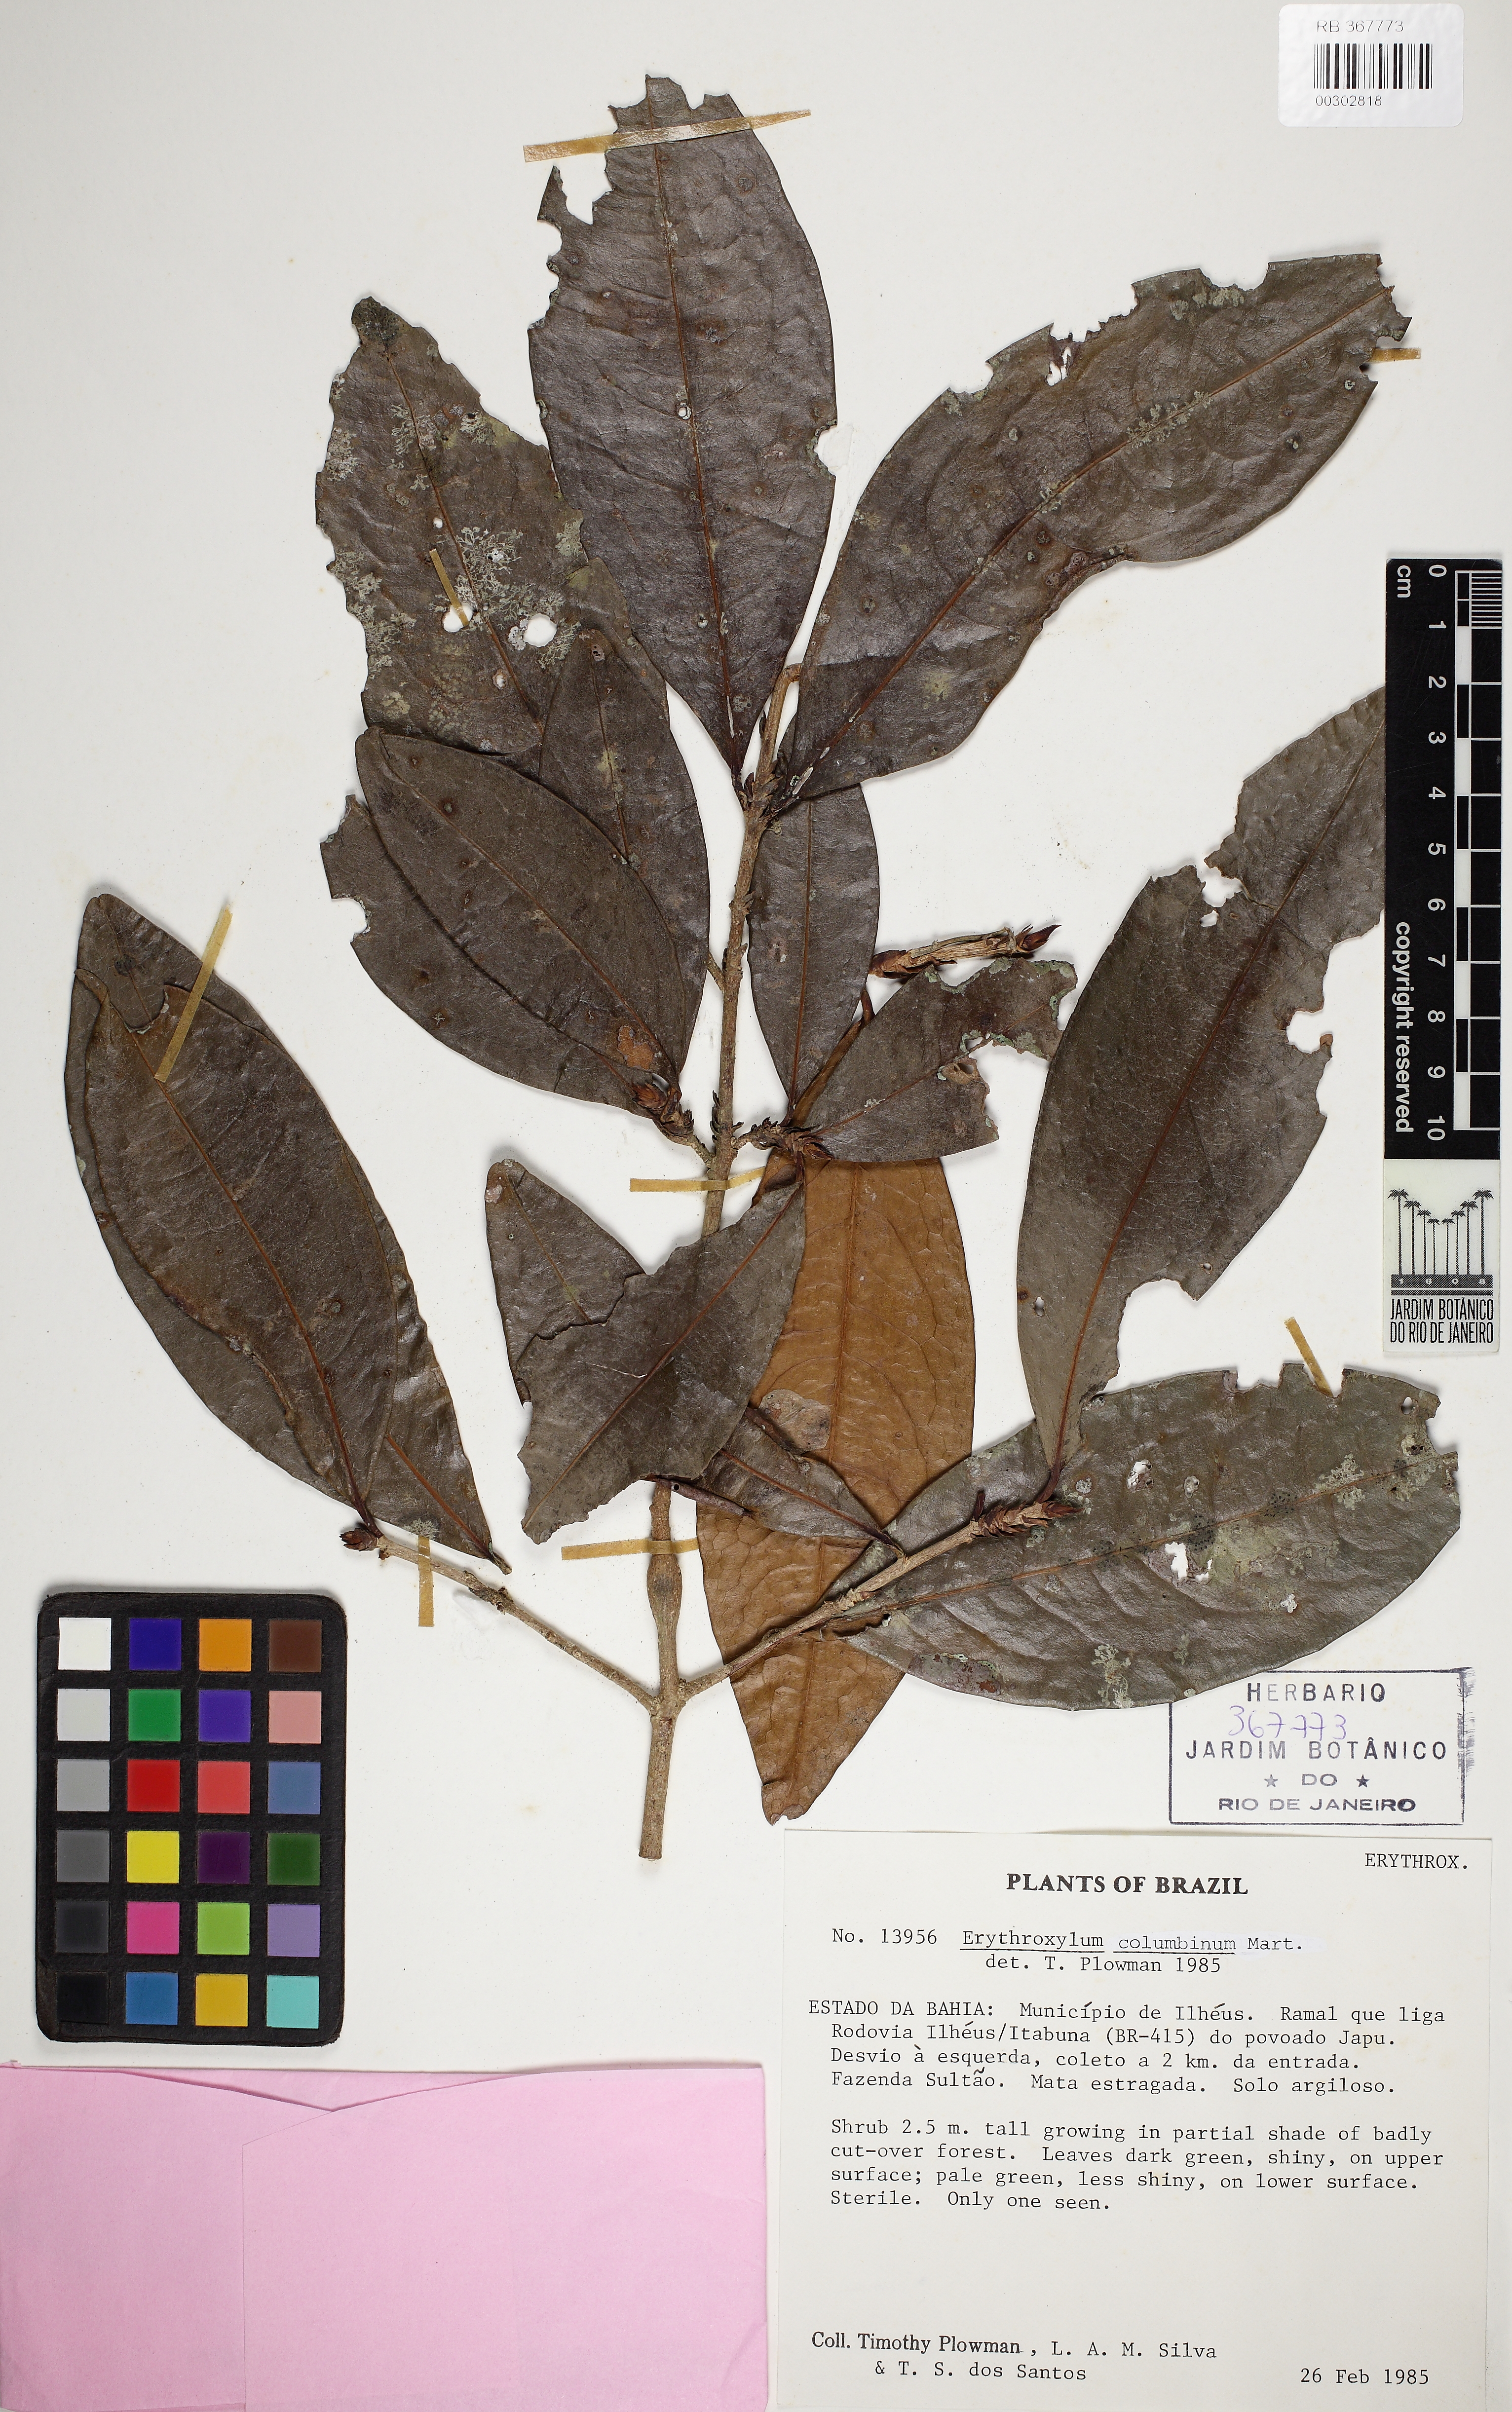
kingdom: Plantae
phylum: Tracheophyta
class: Magnoliopsida
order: Malpighiales
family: Erythroxylaceae
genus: Erythroxylum
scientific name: Erythroxylum columbinum
